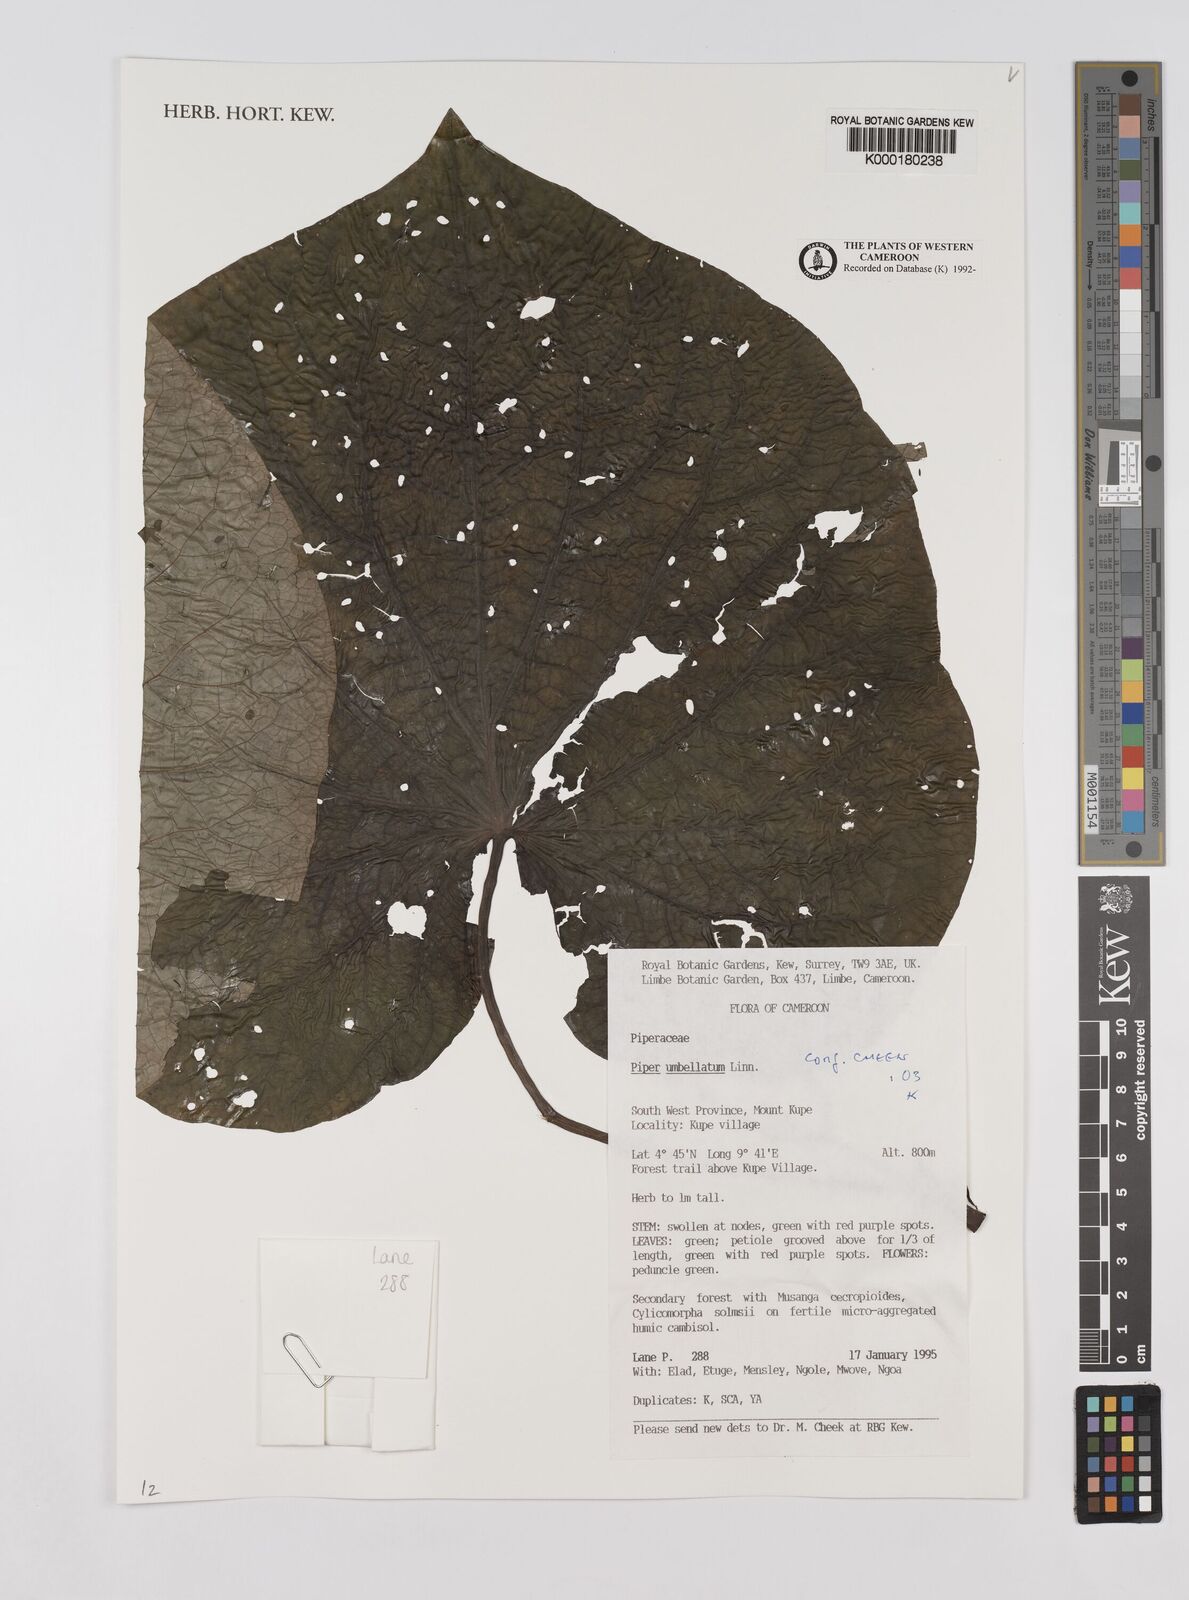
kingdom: Plantae
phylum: Tracheophyta
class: Magnoliopsida
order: Piperales
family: Piperaceae
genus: Piper
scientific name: Piper umbellatum
